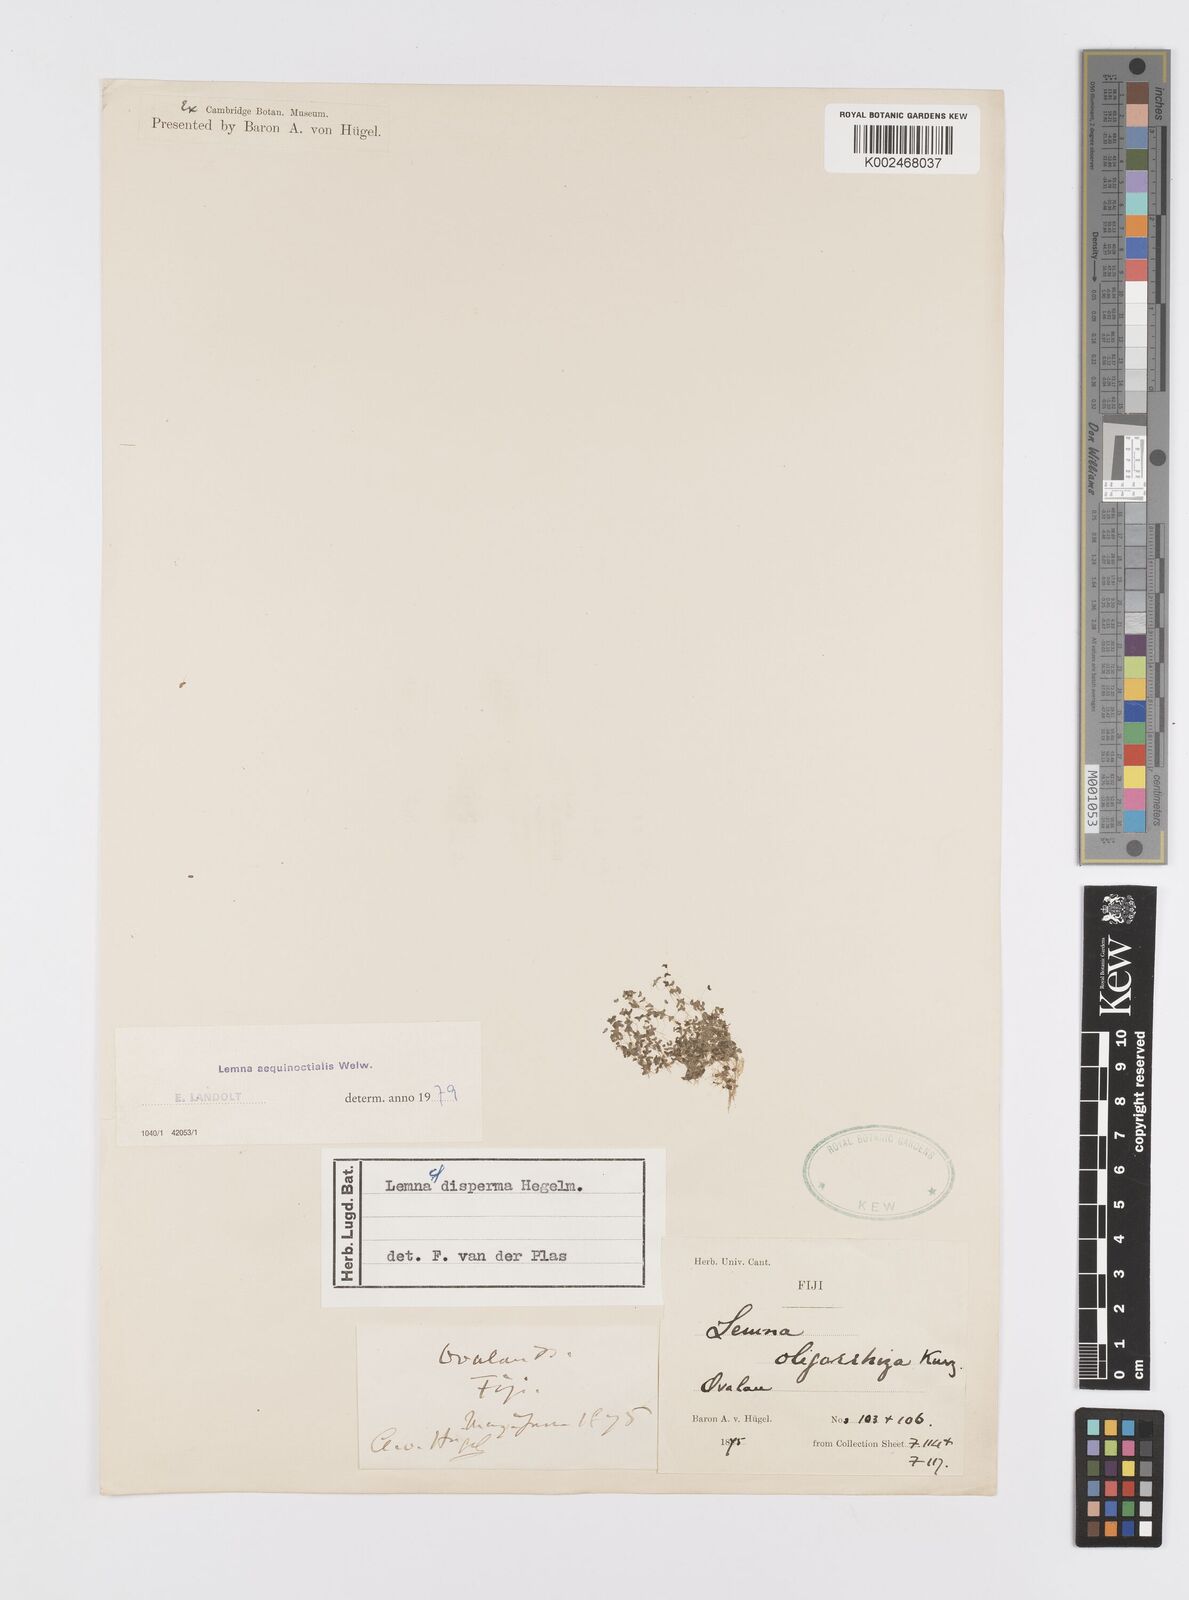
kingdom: Plantae
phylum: Tracheophyta
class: Liliopsida
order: Alismatales
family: Araceae
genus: Lemna
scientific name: Lemna aequinoctialis
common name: Duckweed
